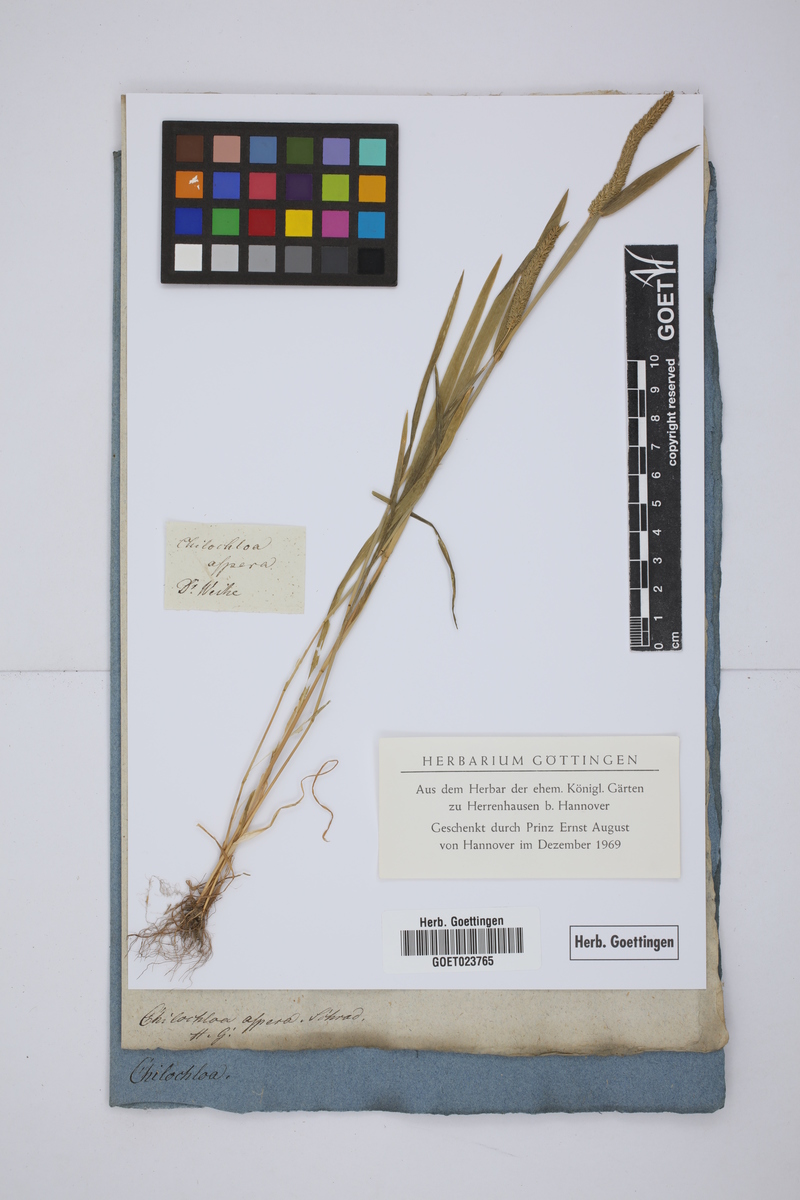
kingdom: Plantae
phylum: Tracheophyta
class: Liliopsida
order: Poales
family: Poaceae
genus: Phleum
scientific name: Phleum paniculatum
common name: British timothy
